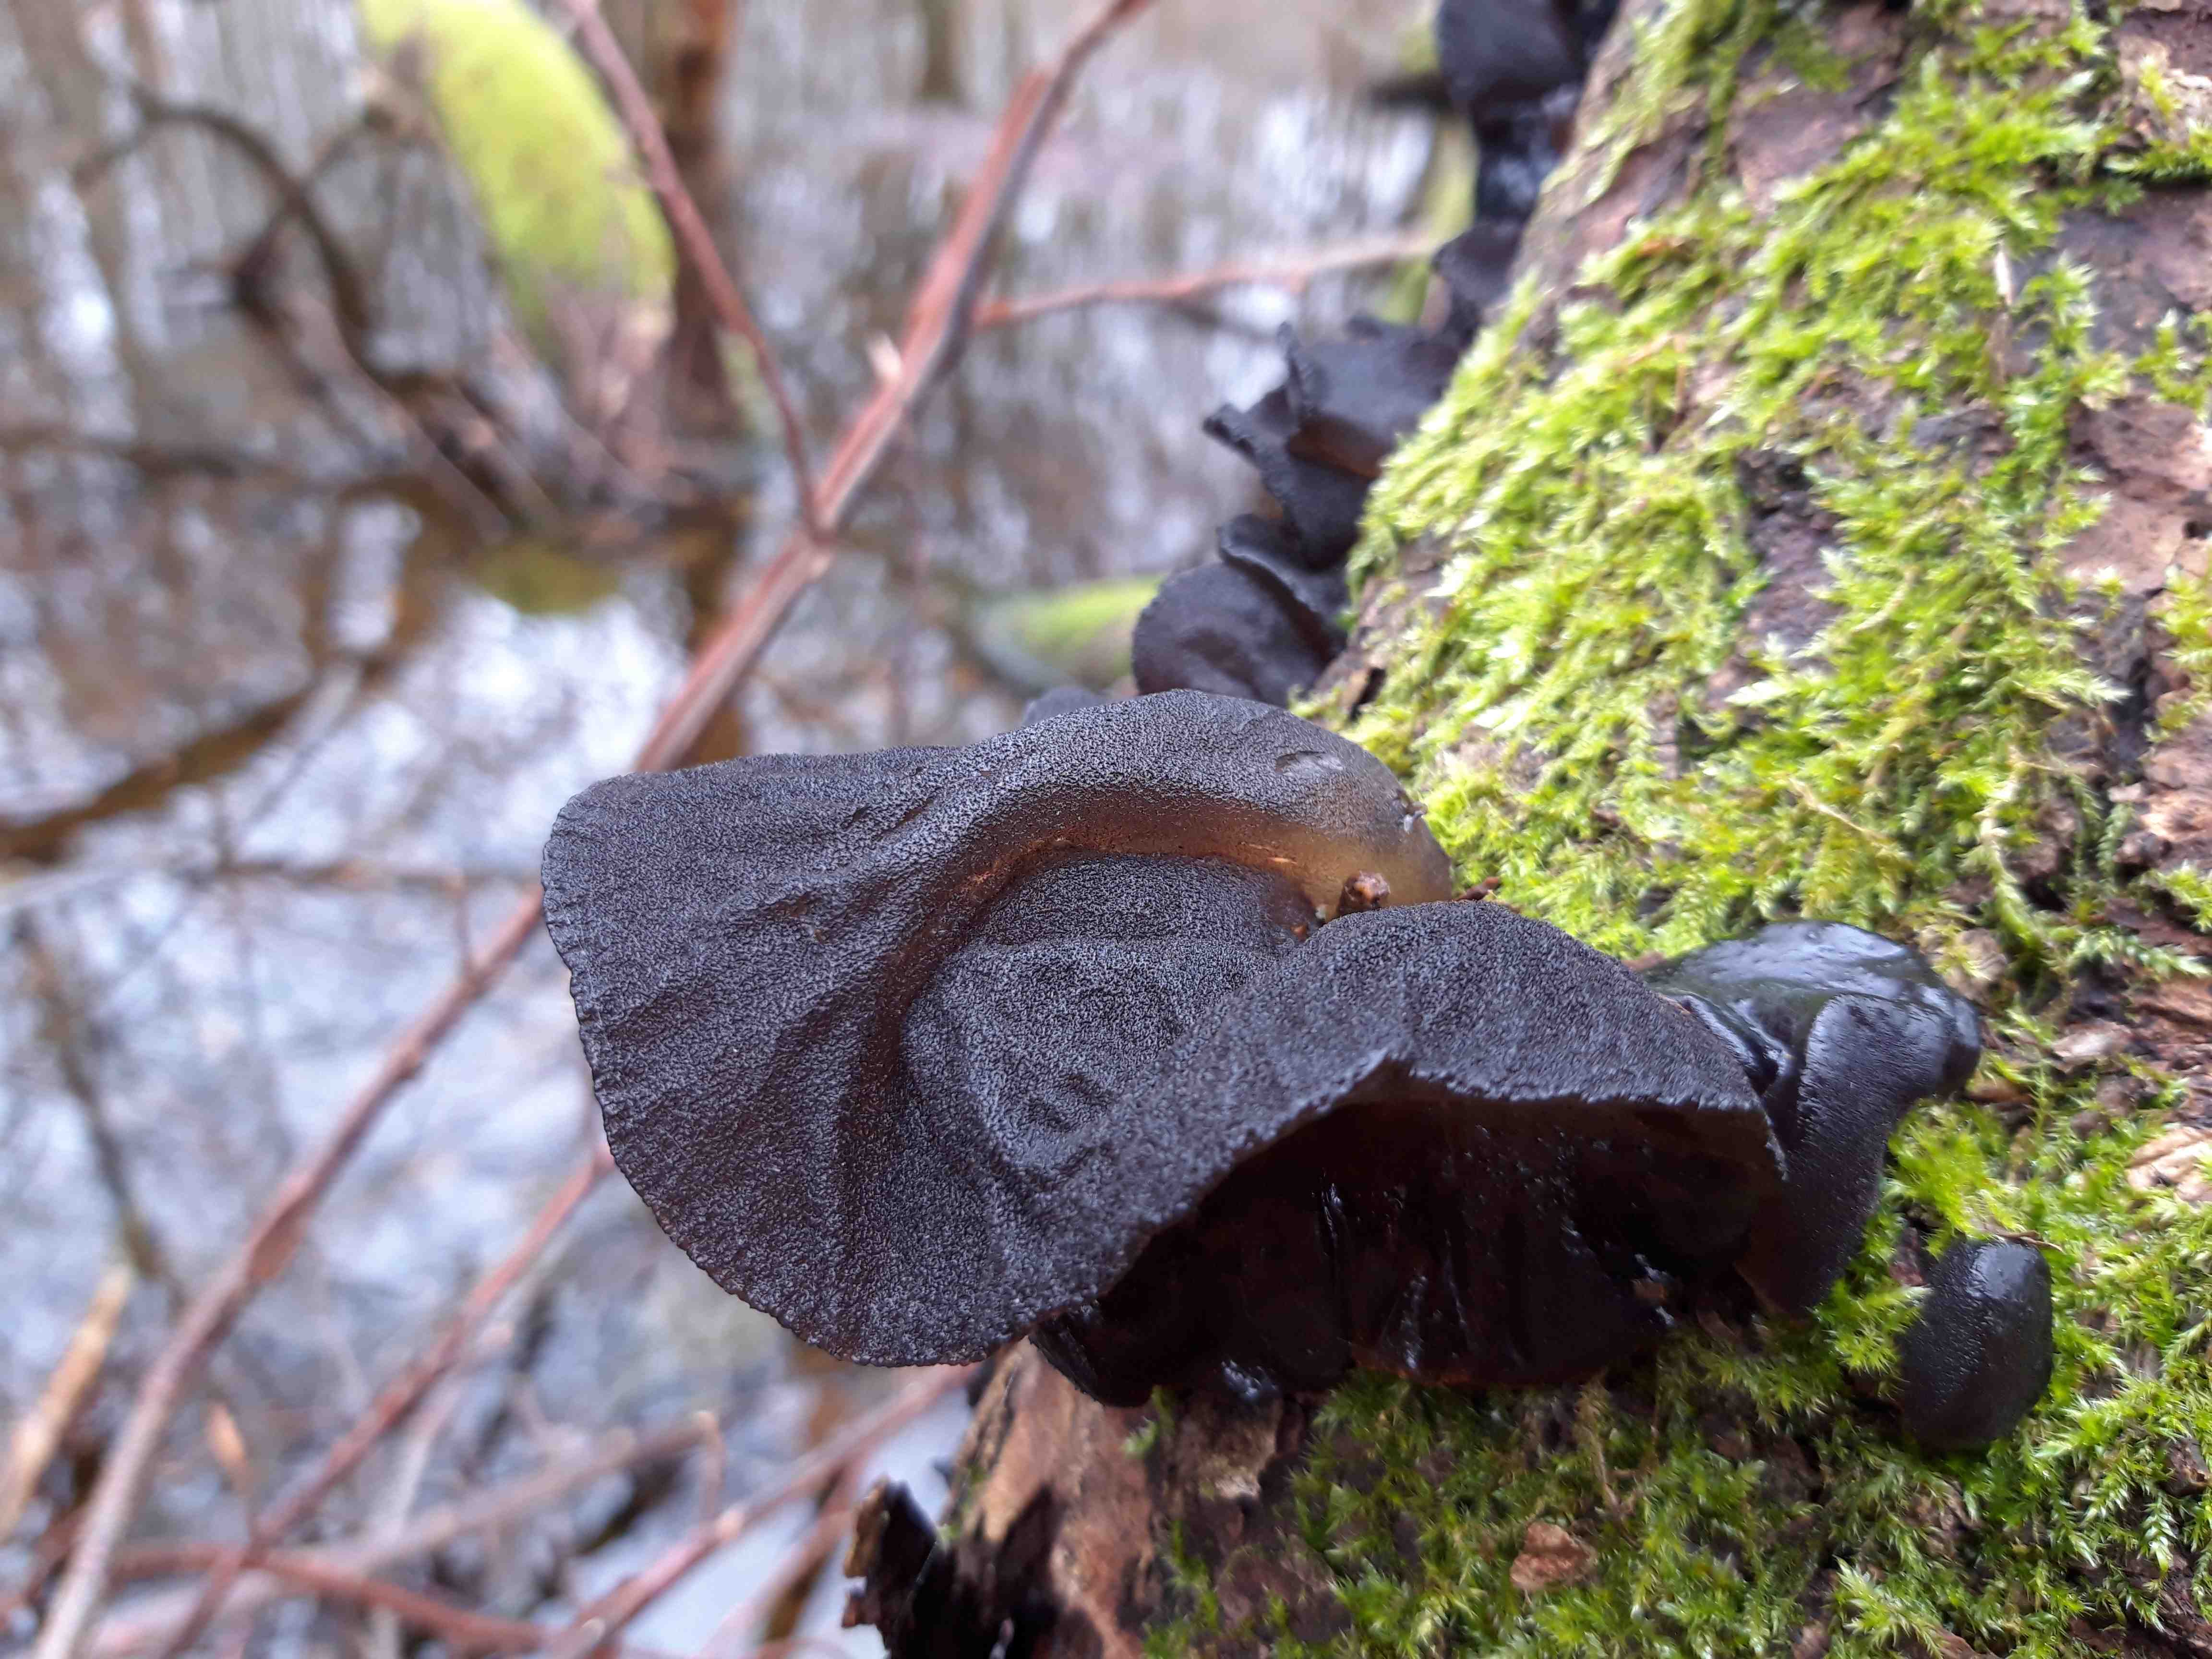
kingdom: Fungi
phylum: Basidiomycota
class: Agaricomycetes
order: Auriculariales
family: Auriculariaceae
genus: Exidia
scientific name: Exidia glandulosa
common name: ege-bævretop
